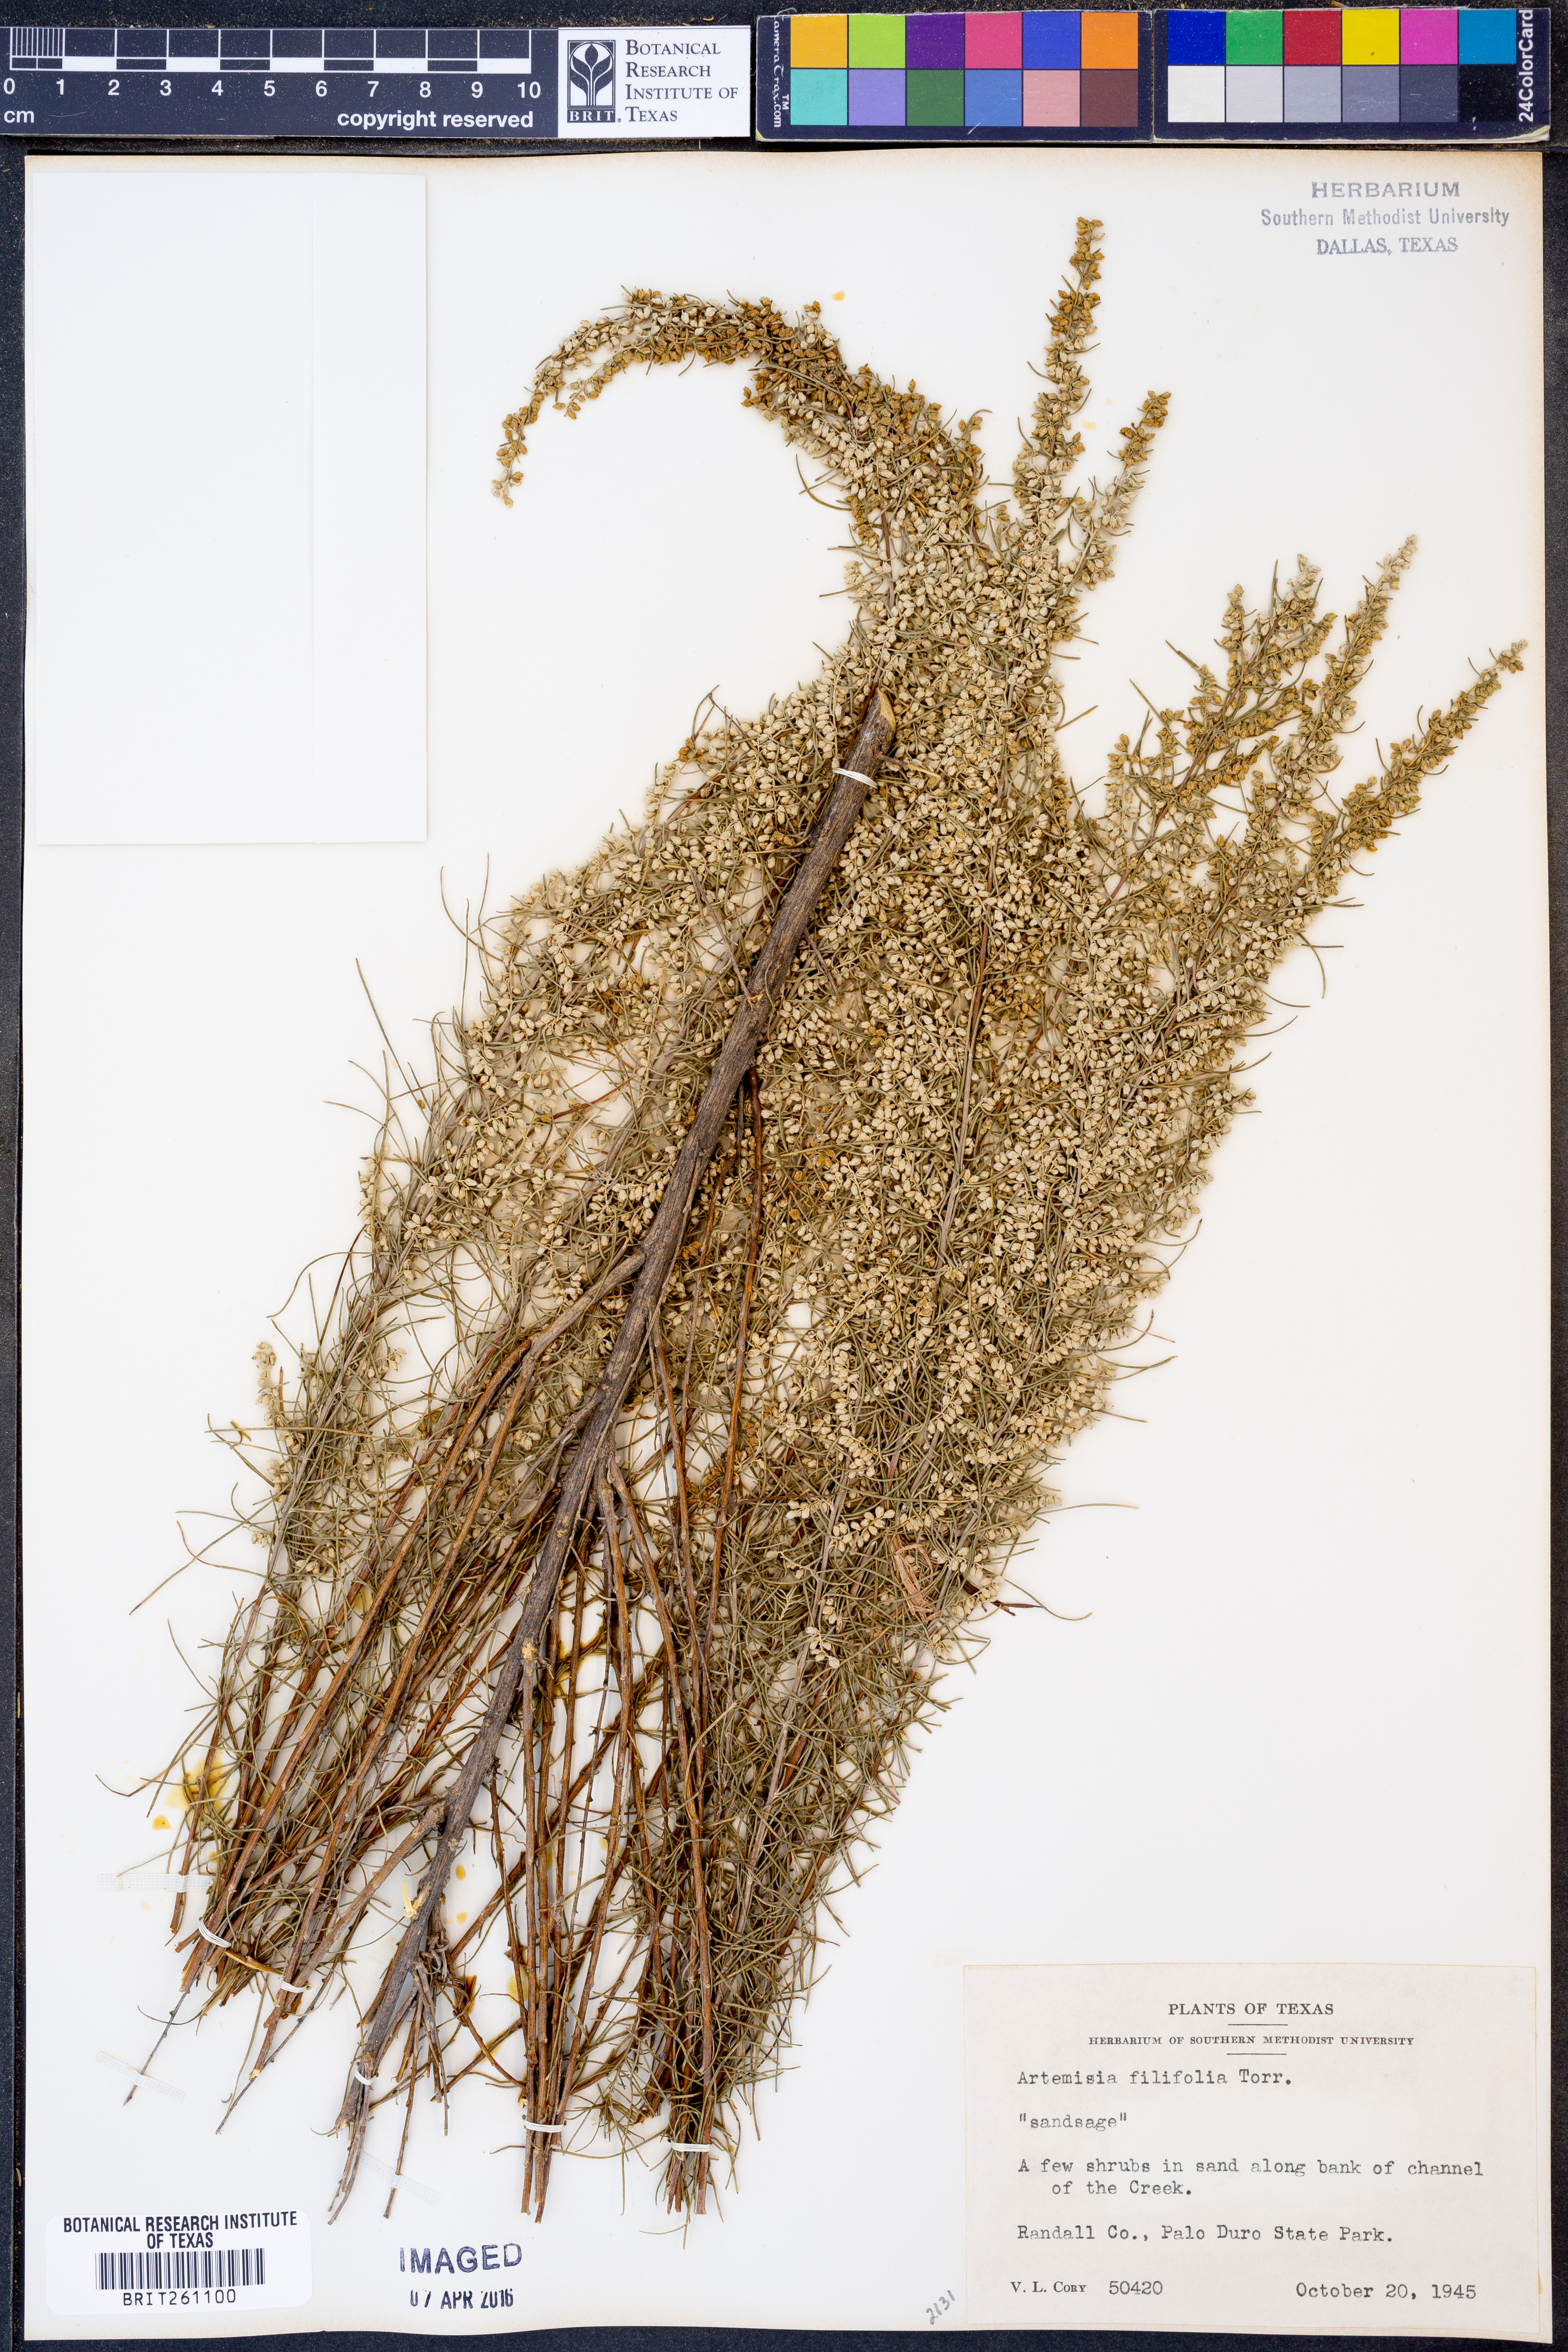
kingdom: Plantae
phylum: Tracheophyta
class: Magnoliopsida
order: Asterales
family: Asteraceae
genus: Artemisia
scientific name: Artemisia filifolia
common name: Sand-sage
